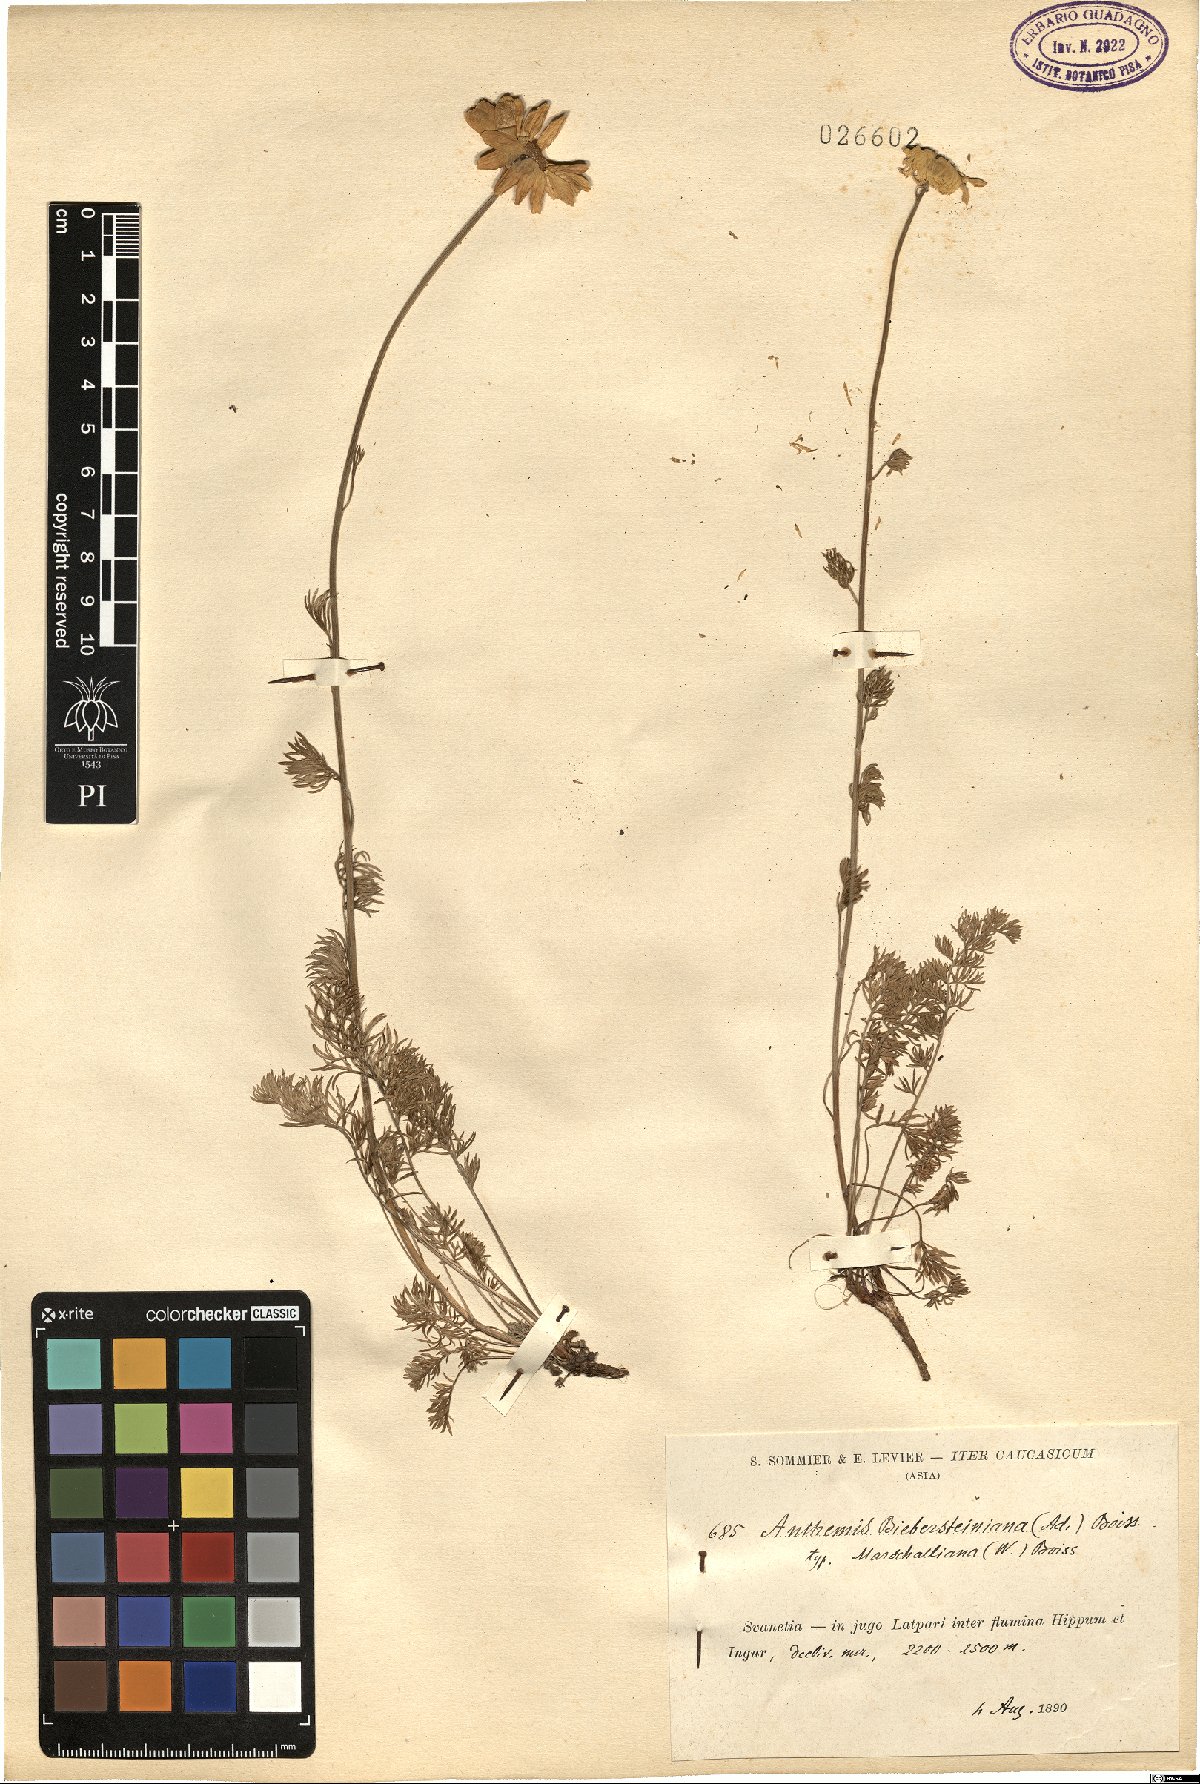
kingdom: Plantae
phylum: Tracheophyta
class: Magnoliopsida
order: Asterales
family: Asteraceae
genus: Archanthemis
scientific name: Archanthemis marschalliana
